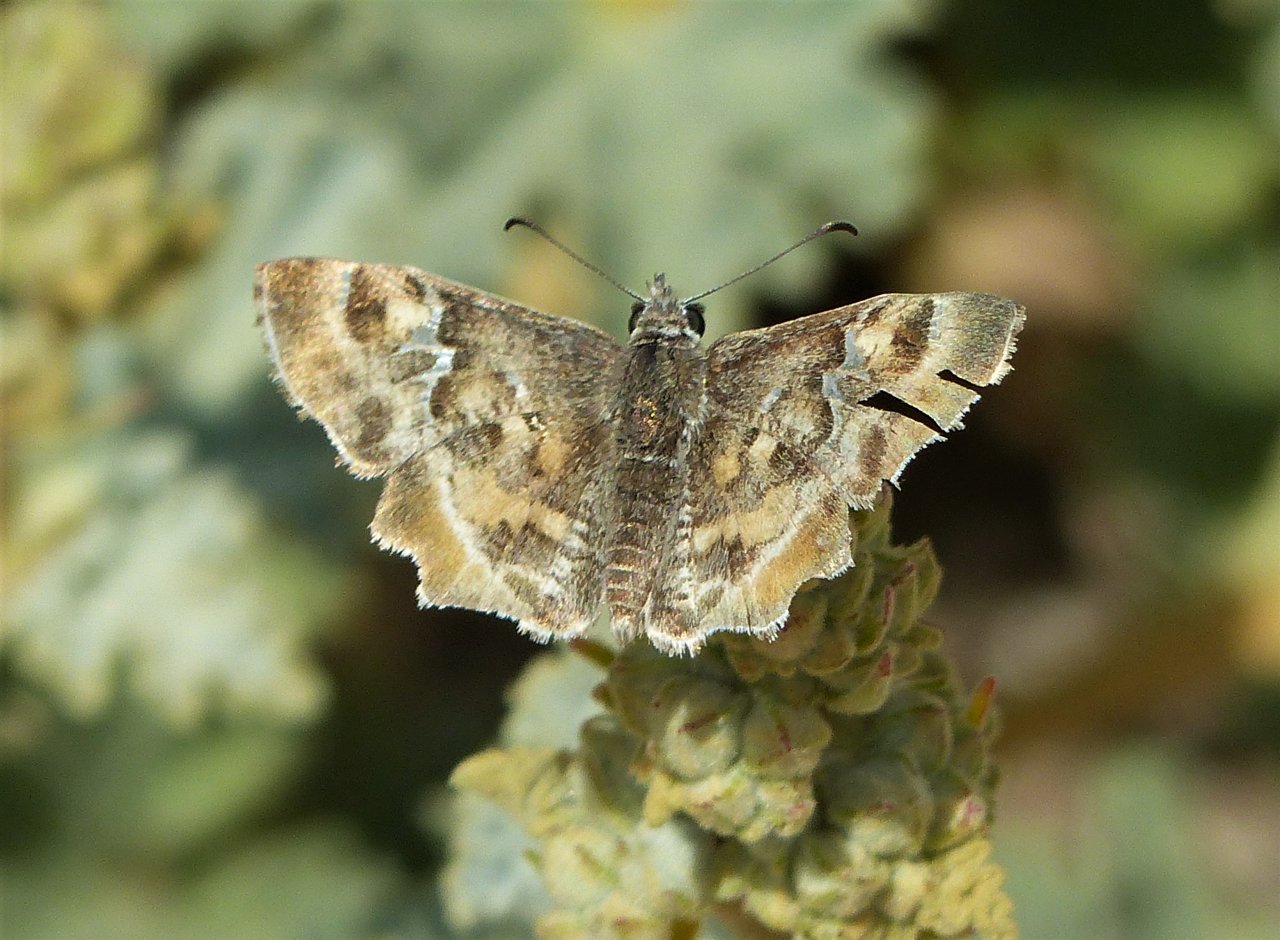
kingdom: Animalia
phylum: Arthropoda
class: Insecta
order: Lepidoptera
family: Hesperiidae
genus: Systasea
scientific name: Systasea zampa
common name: Arizona Powdered-Skipper
